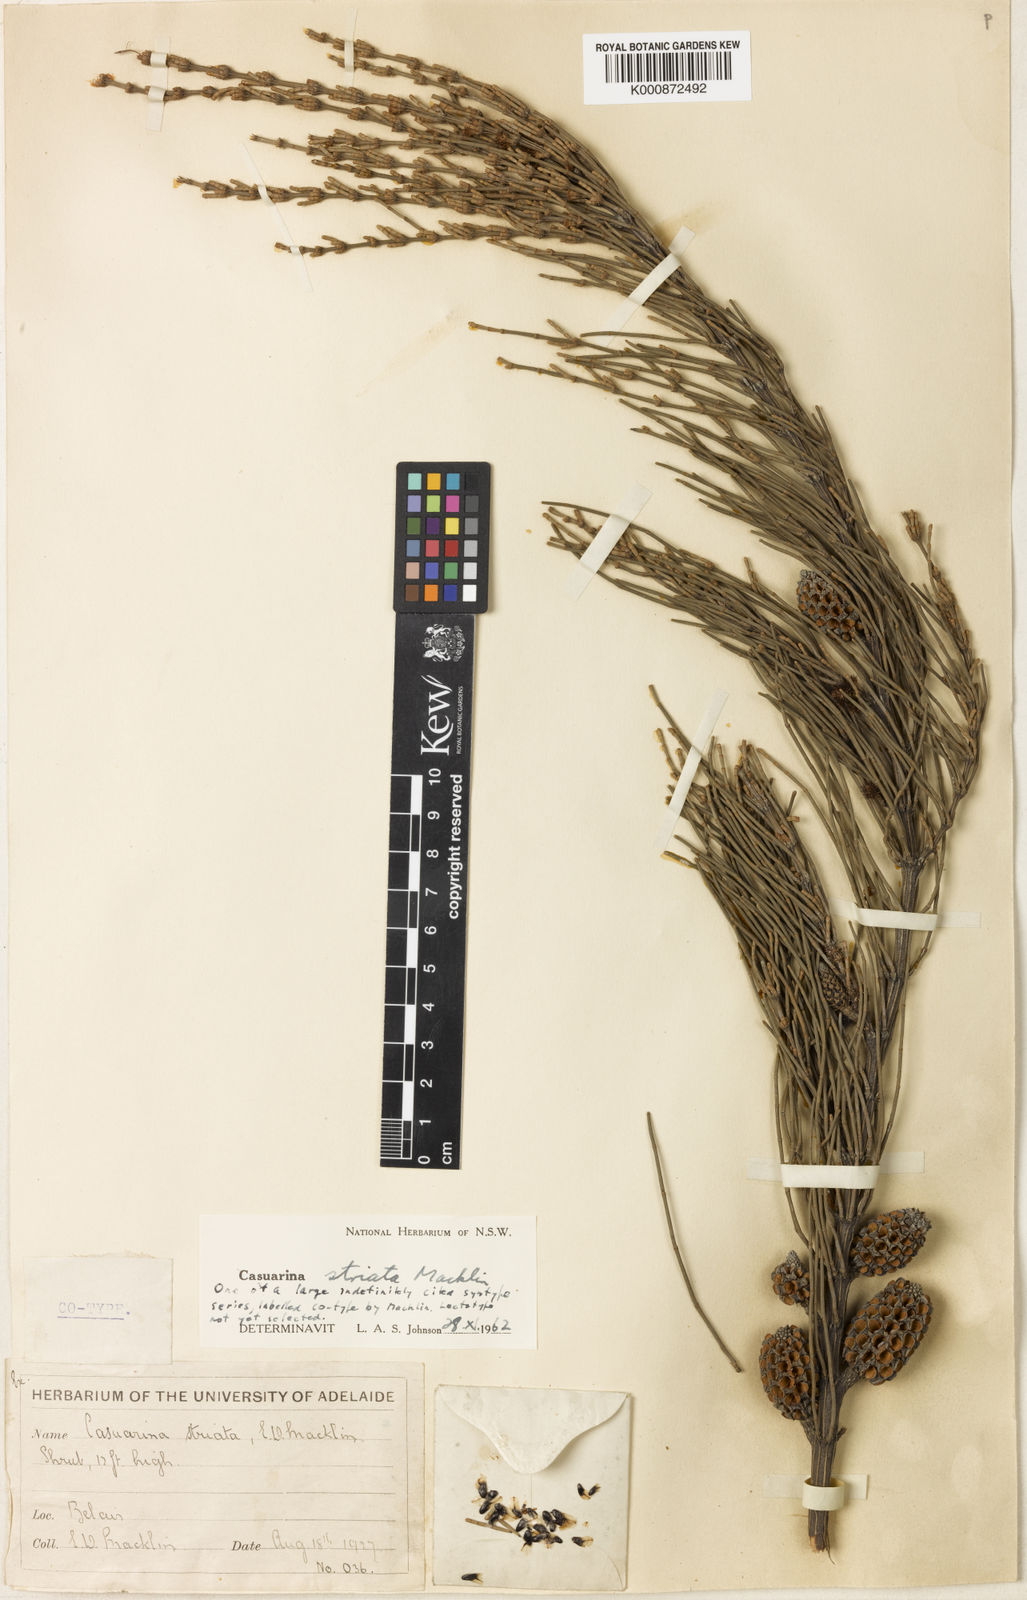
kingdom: Plantae
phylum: Tracheophyta
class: Magnoliopsida
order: Fagales
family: Casuarinaceae
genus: Allocasuarina
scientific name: Allocasuarina striata
